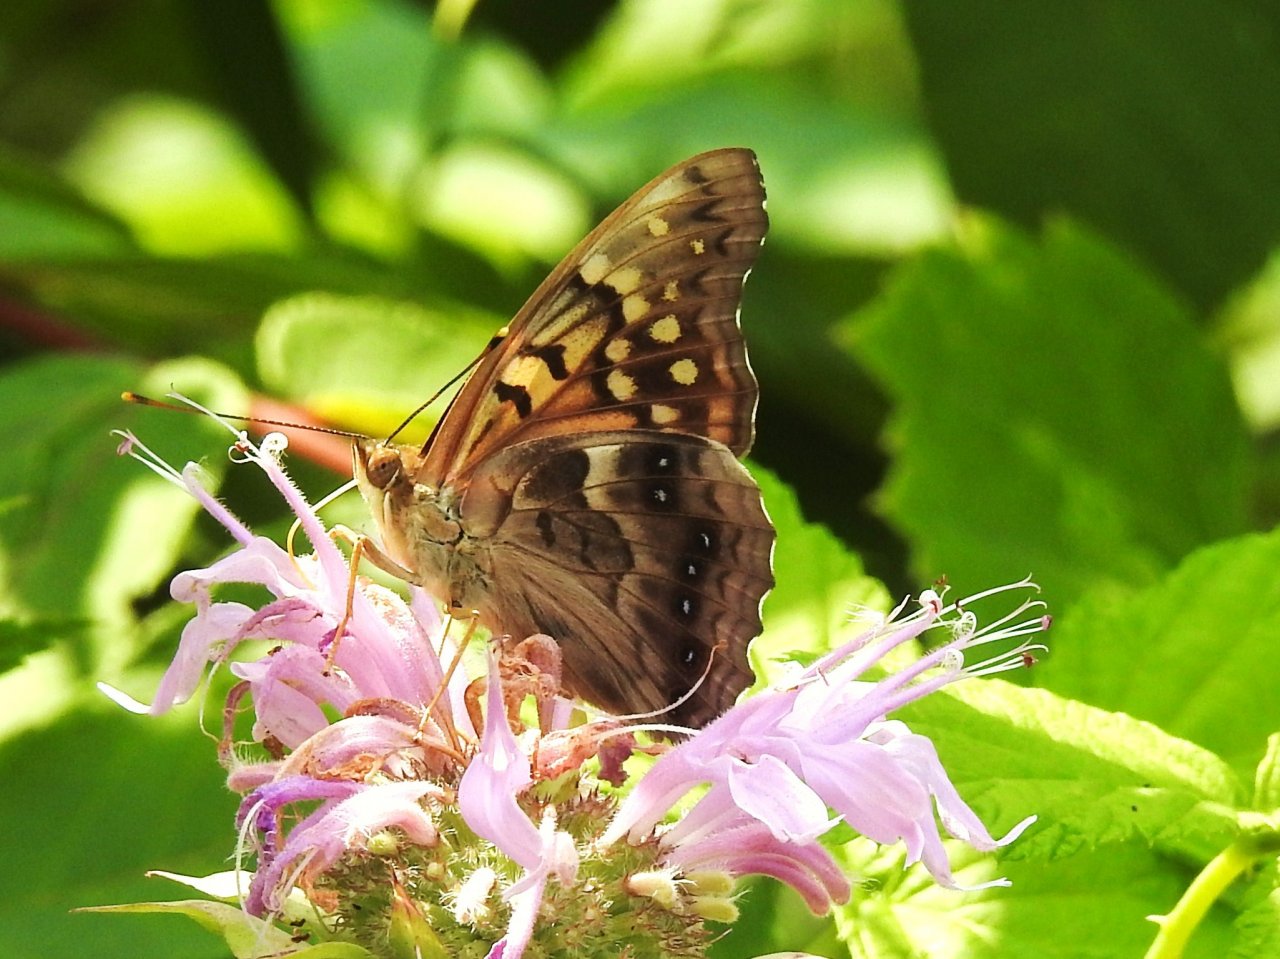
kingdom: Animalia
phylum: Arthropoda
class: Insecta
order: Lepidoptera
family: Nymphalidae
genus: Asterocampa
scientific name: Asterocampa clyton
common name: Tawny Emperor
